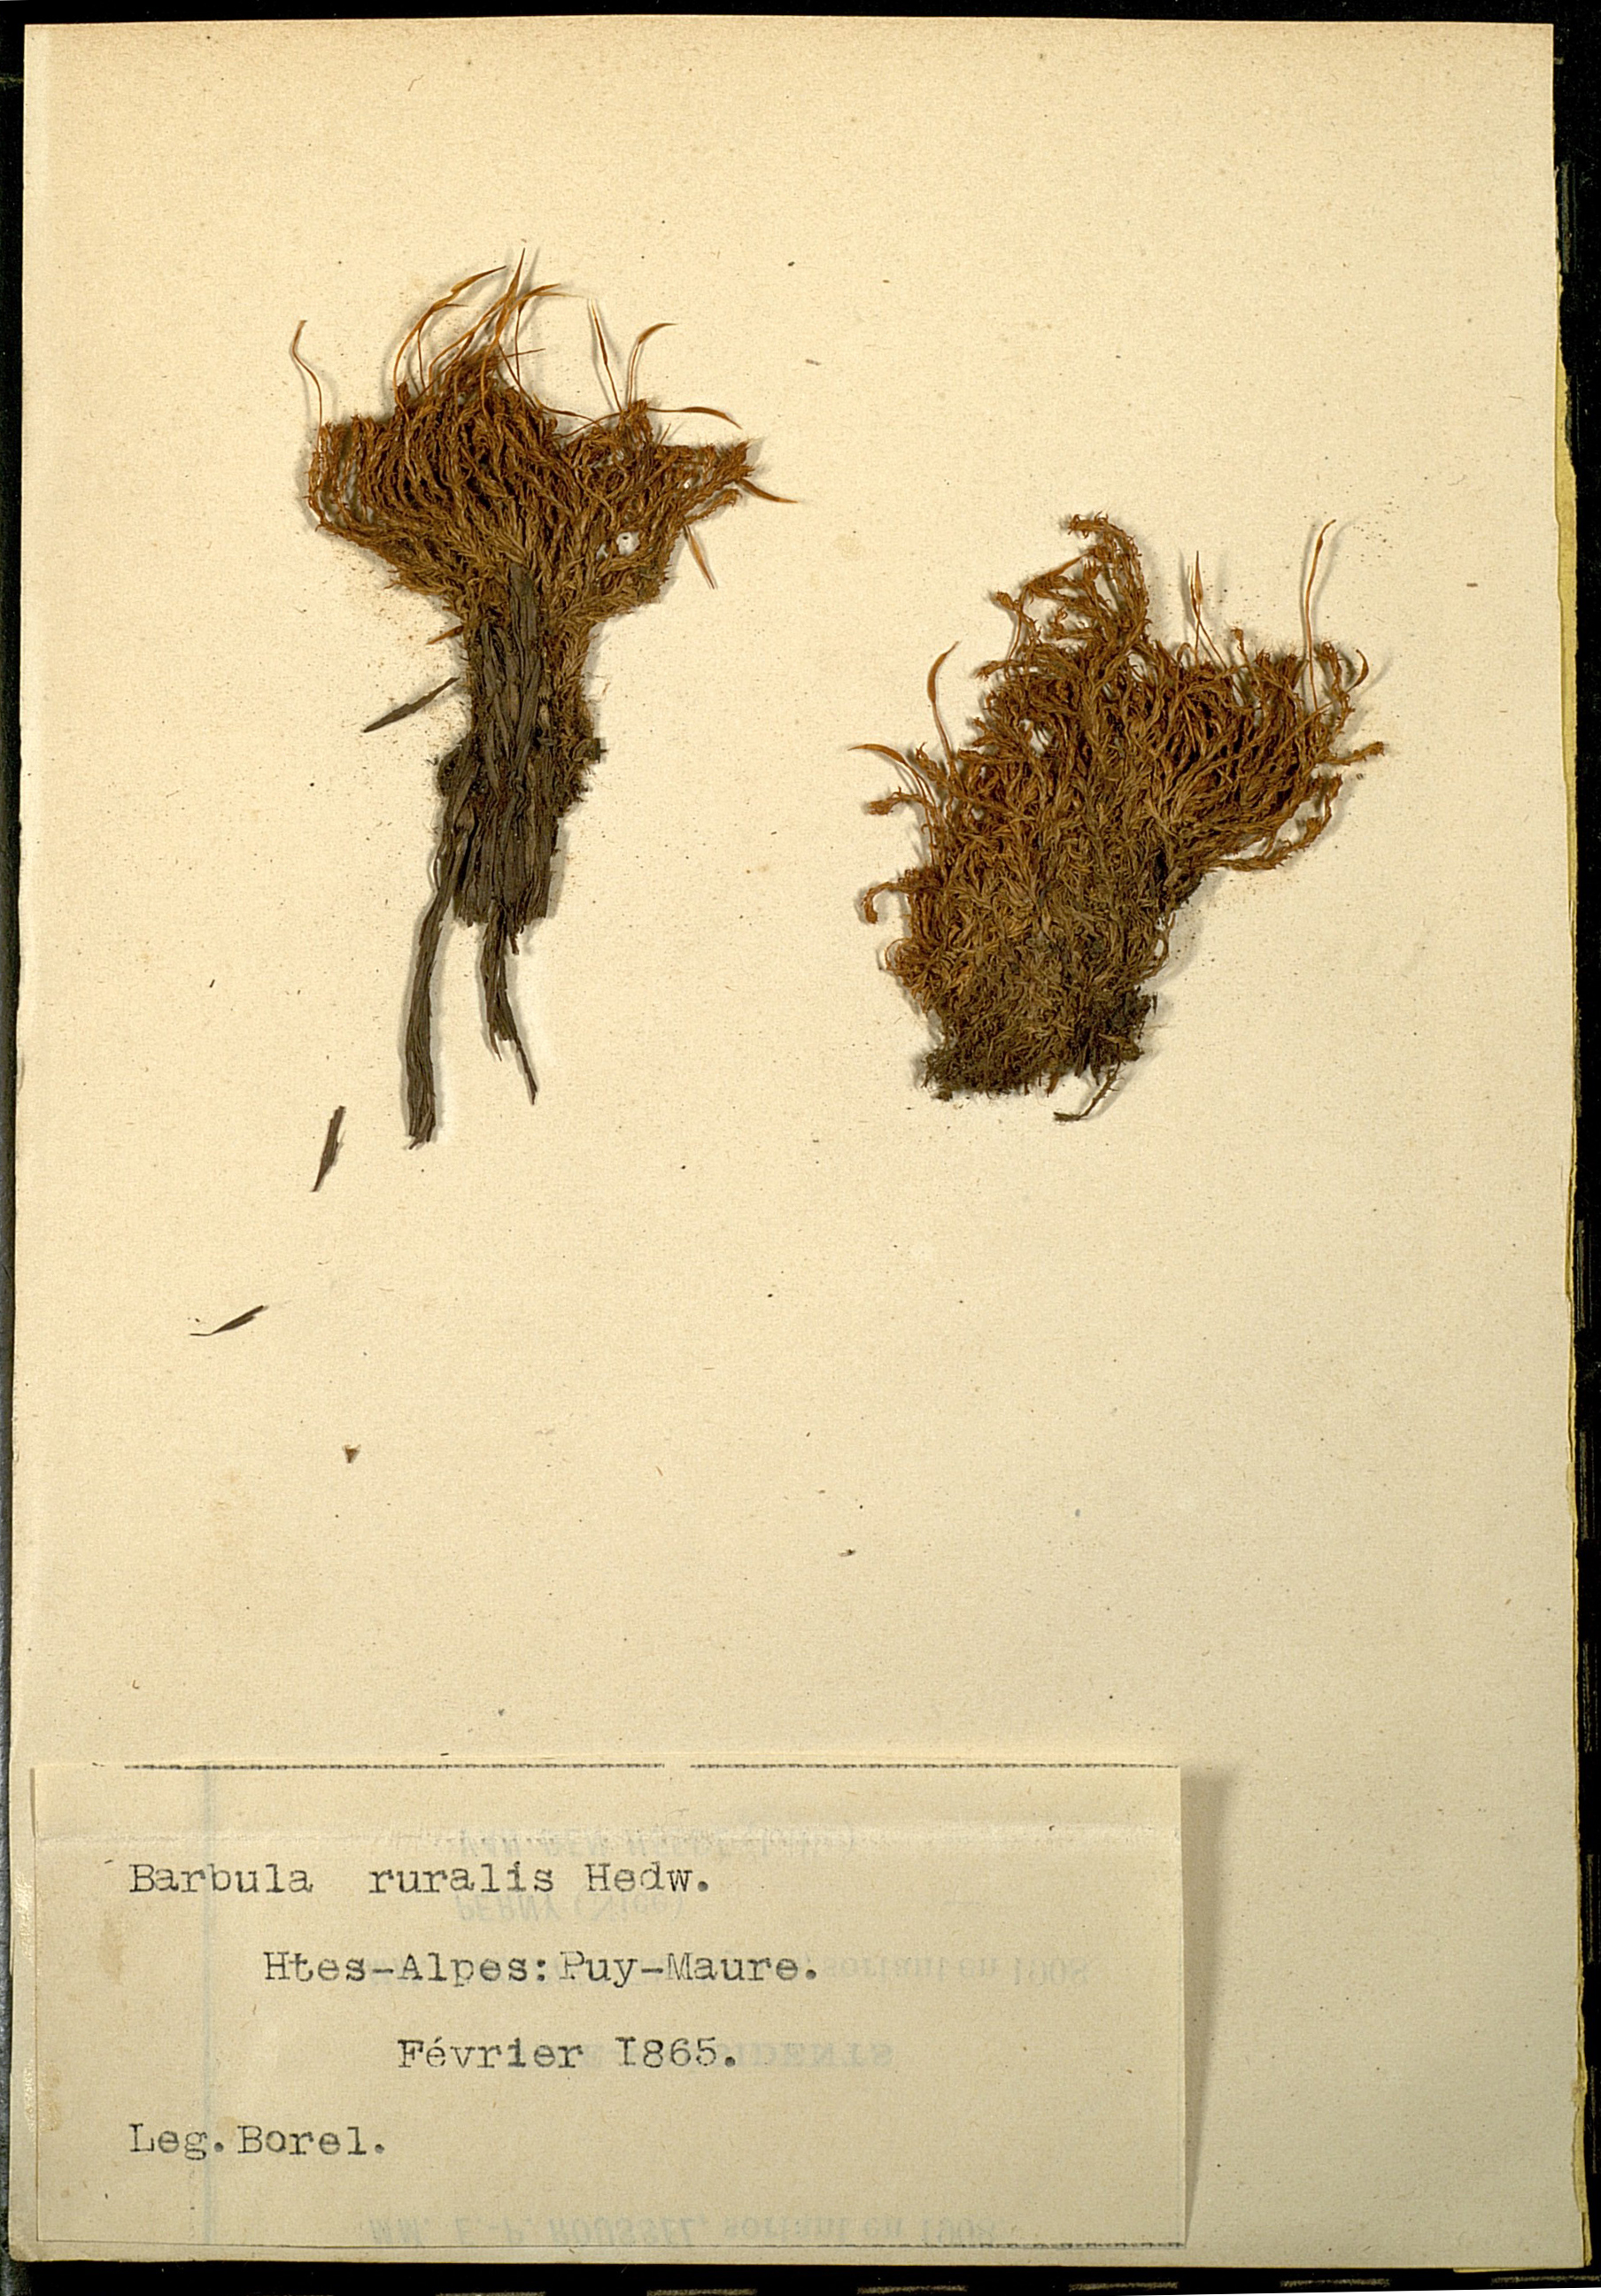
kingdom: Plantae
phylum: Bryophyta
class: Bryopsida
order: Pottiales
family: Pottiaceae
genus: Syntrichia
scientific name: Syntrichia ruralis
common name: Sidewalk screw moss
